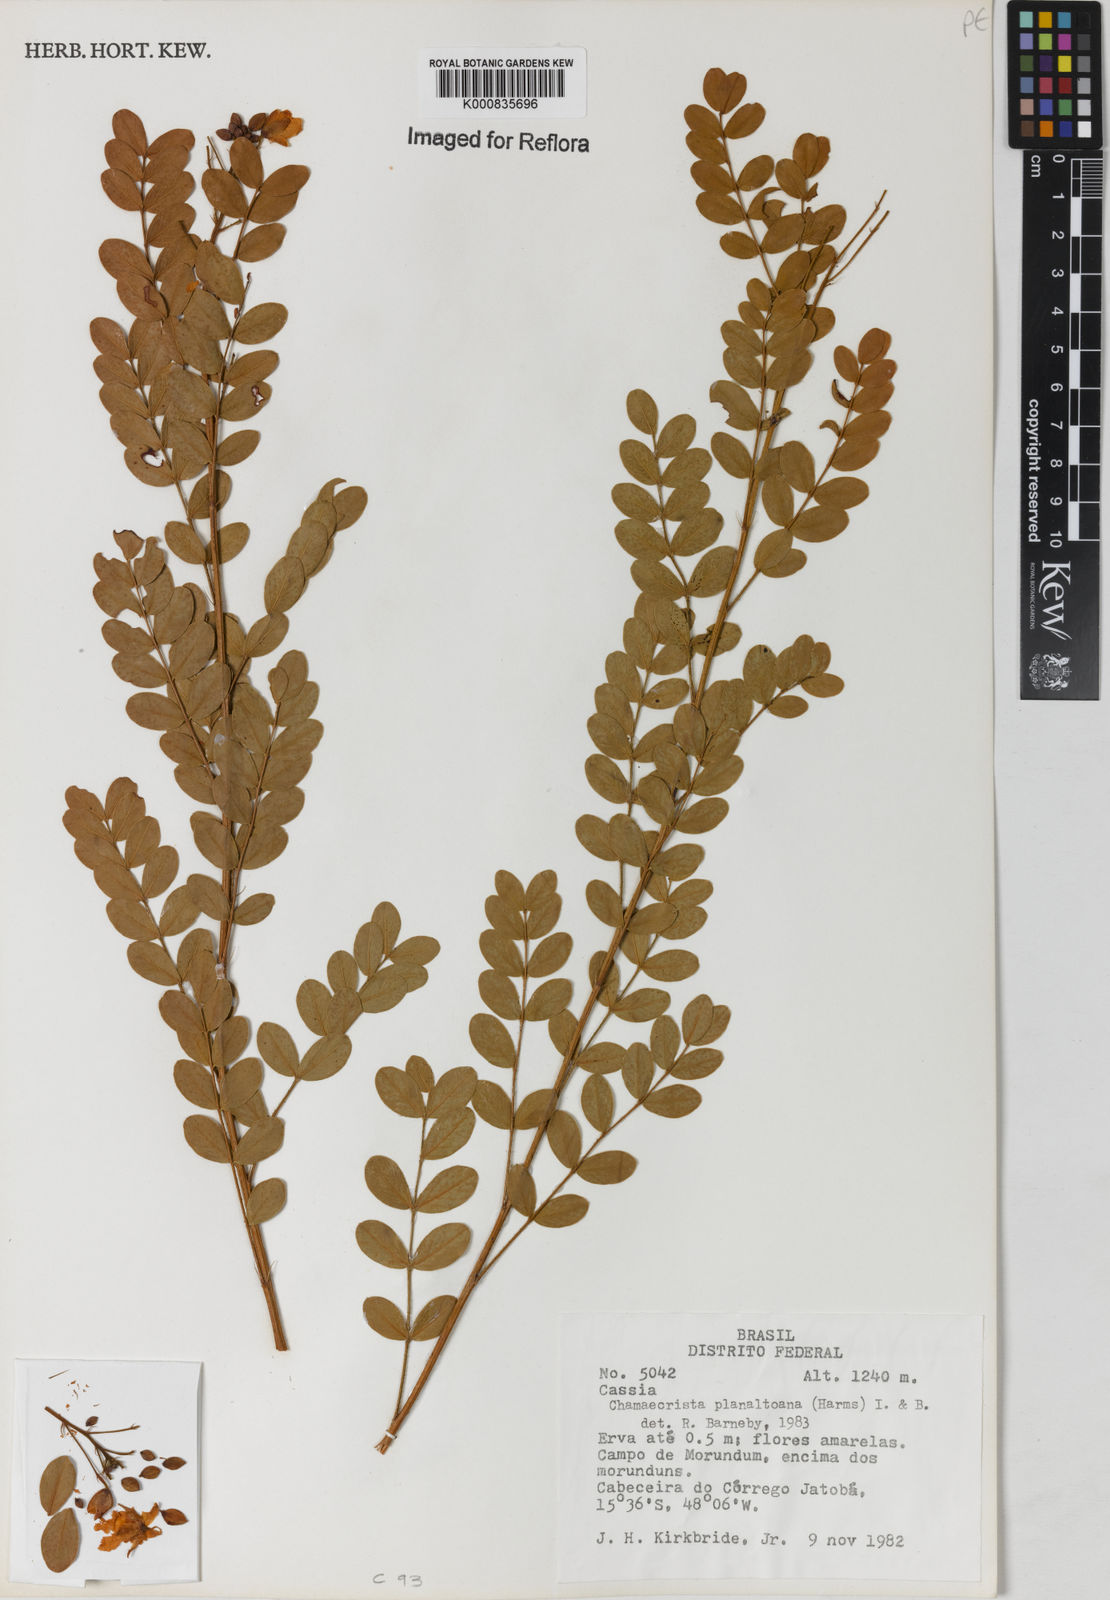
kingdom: Plantae
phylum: Tracheophyta
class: Magnoliopsida
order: Fabales
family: Fabaceae
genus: Chamaecrista
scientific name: Chamaecrista planaltoana
